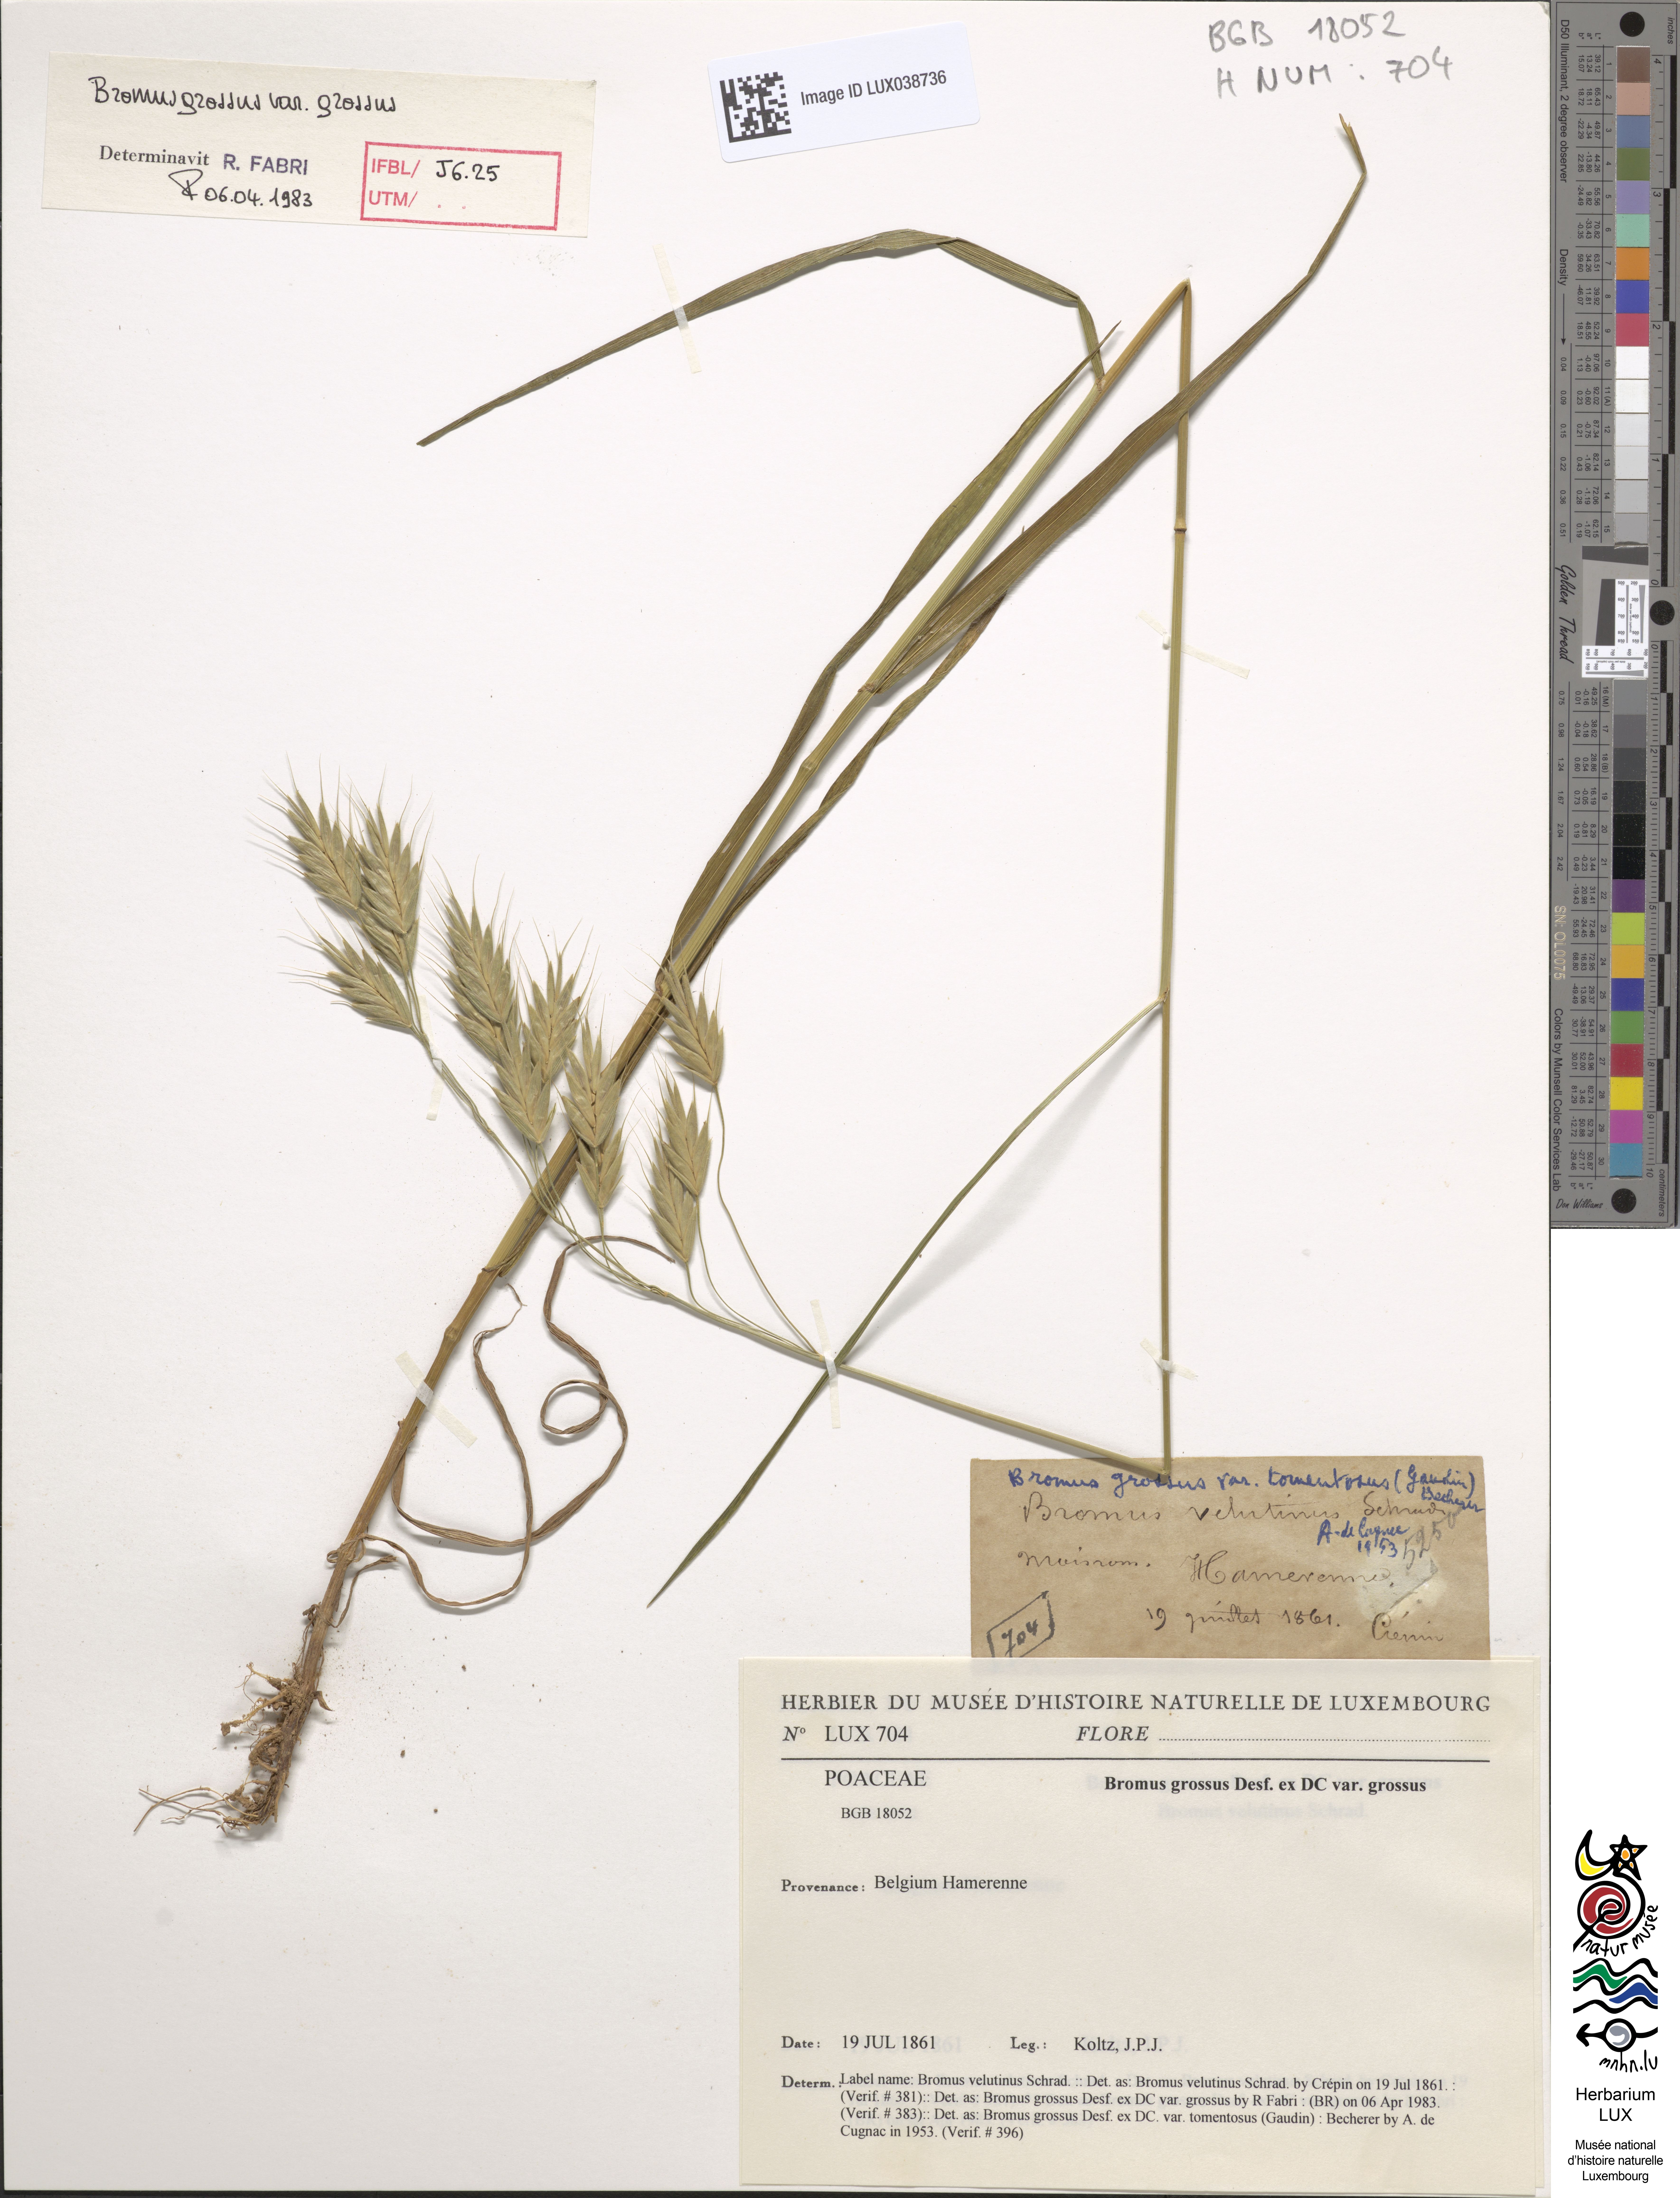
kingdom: Plantae
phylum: Tracheophyta
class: Liliopsida
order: Poales
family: Poaceae
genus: Bromus
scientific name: Bromus grossus
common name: Whiskered brome
